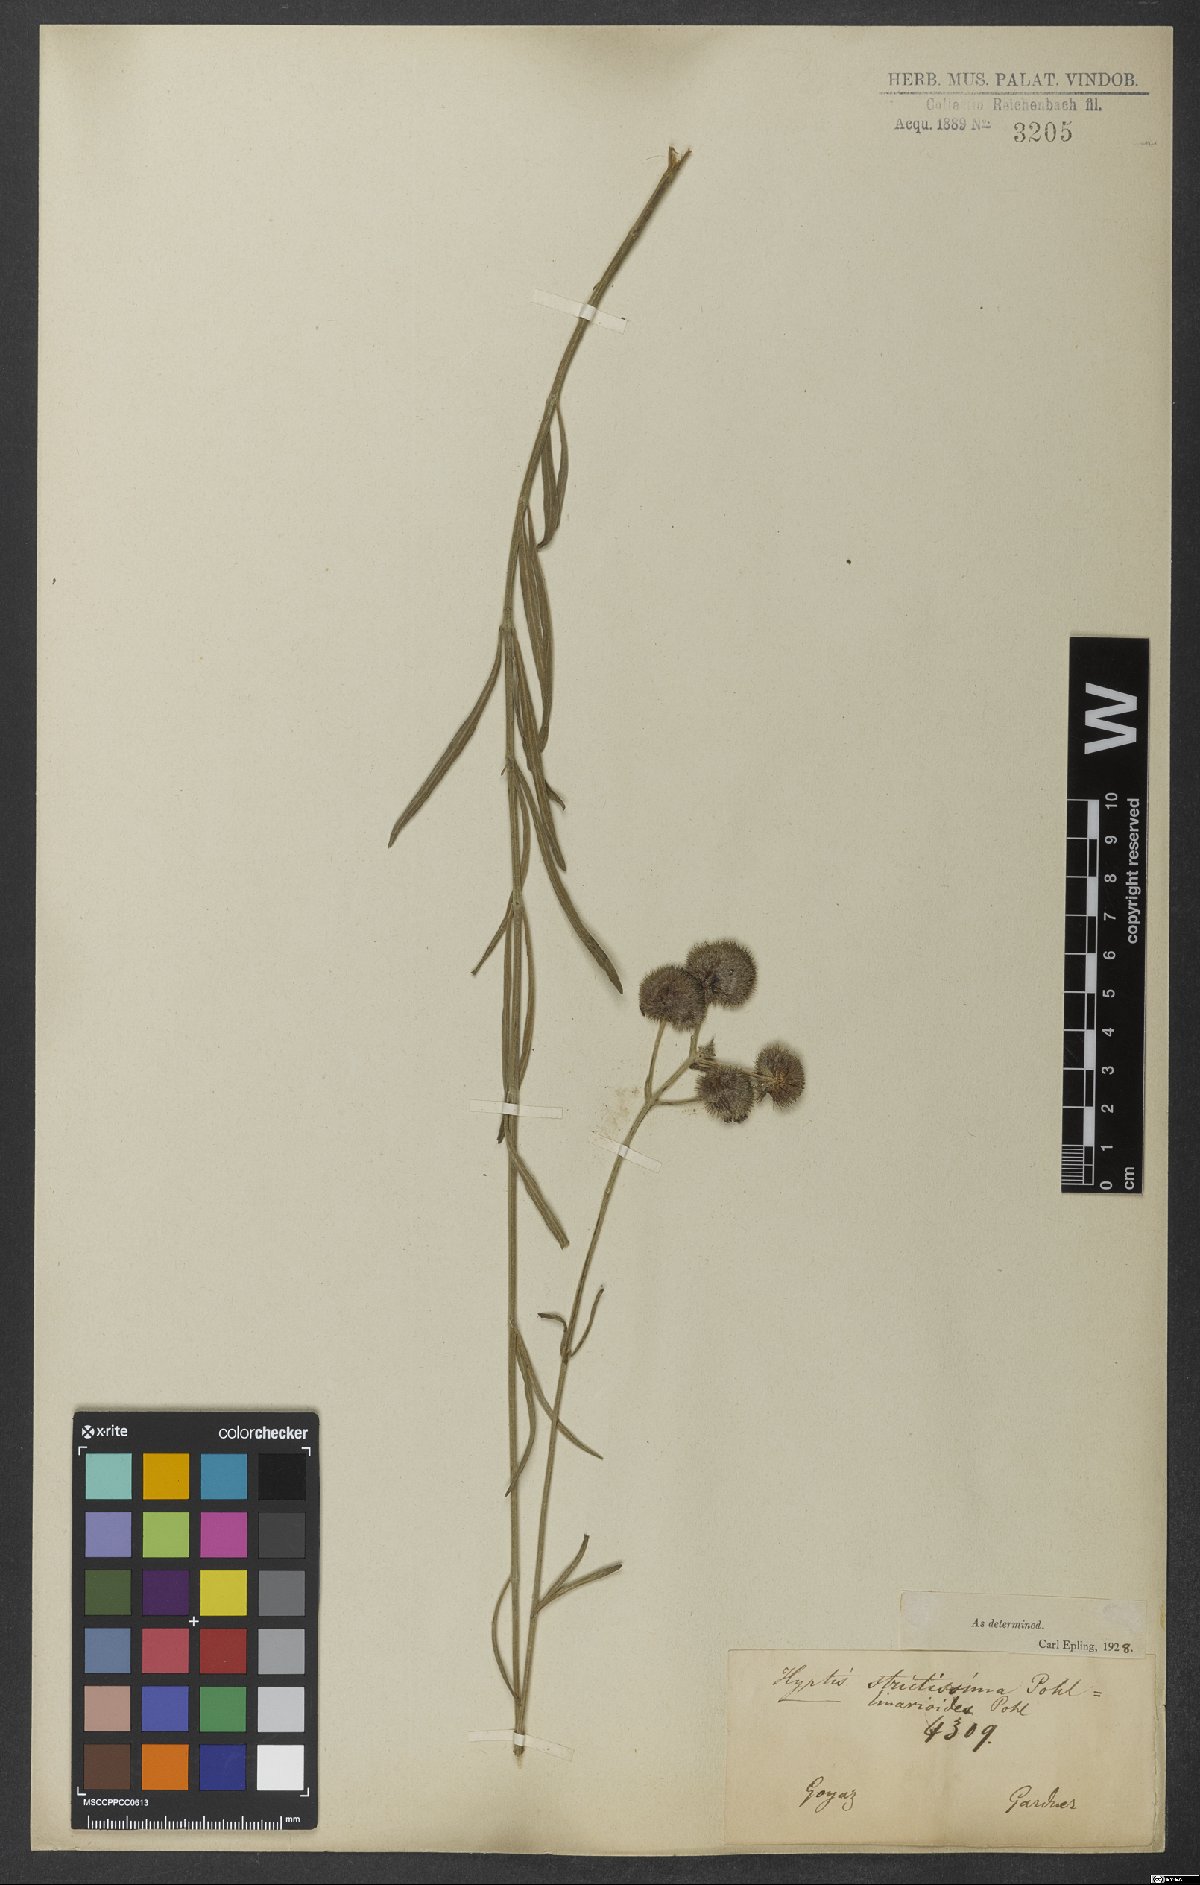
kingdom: Plantae
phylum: Tracheophyta
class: Magnoliopsida
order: Lamiales
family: Lamiaceae
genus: Hyptis
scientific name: Hyptis linarioides
